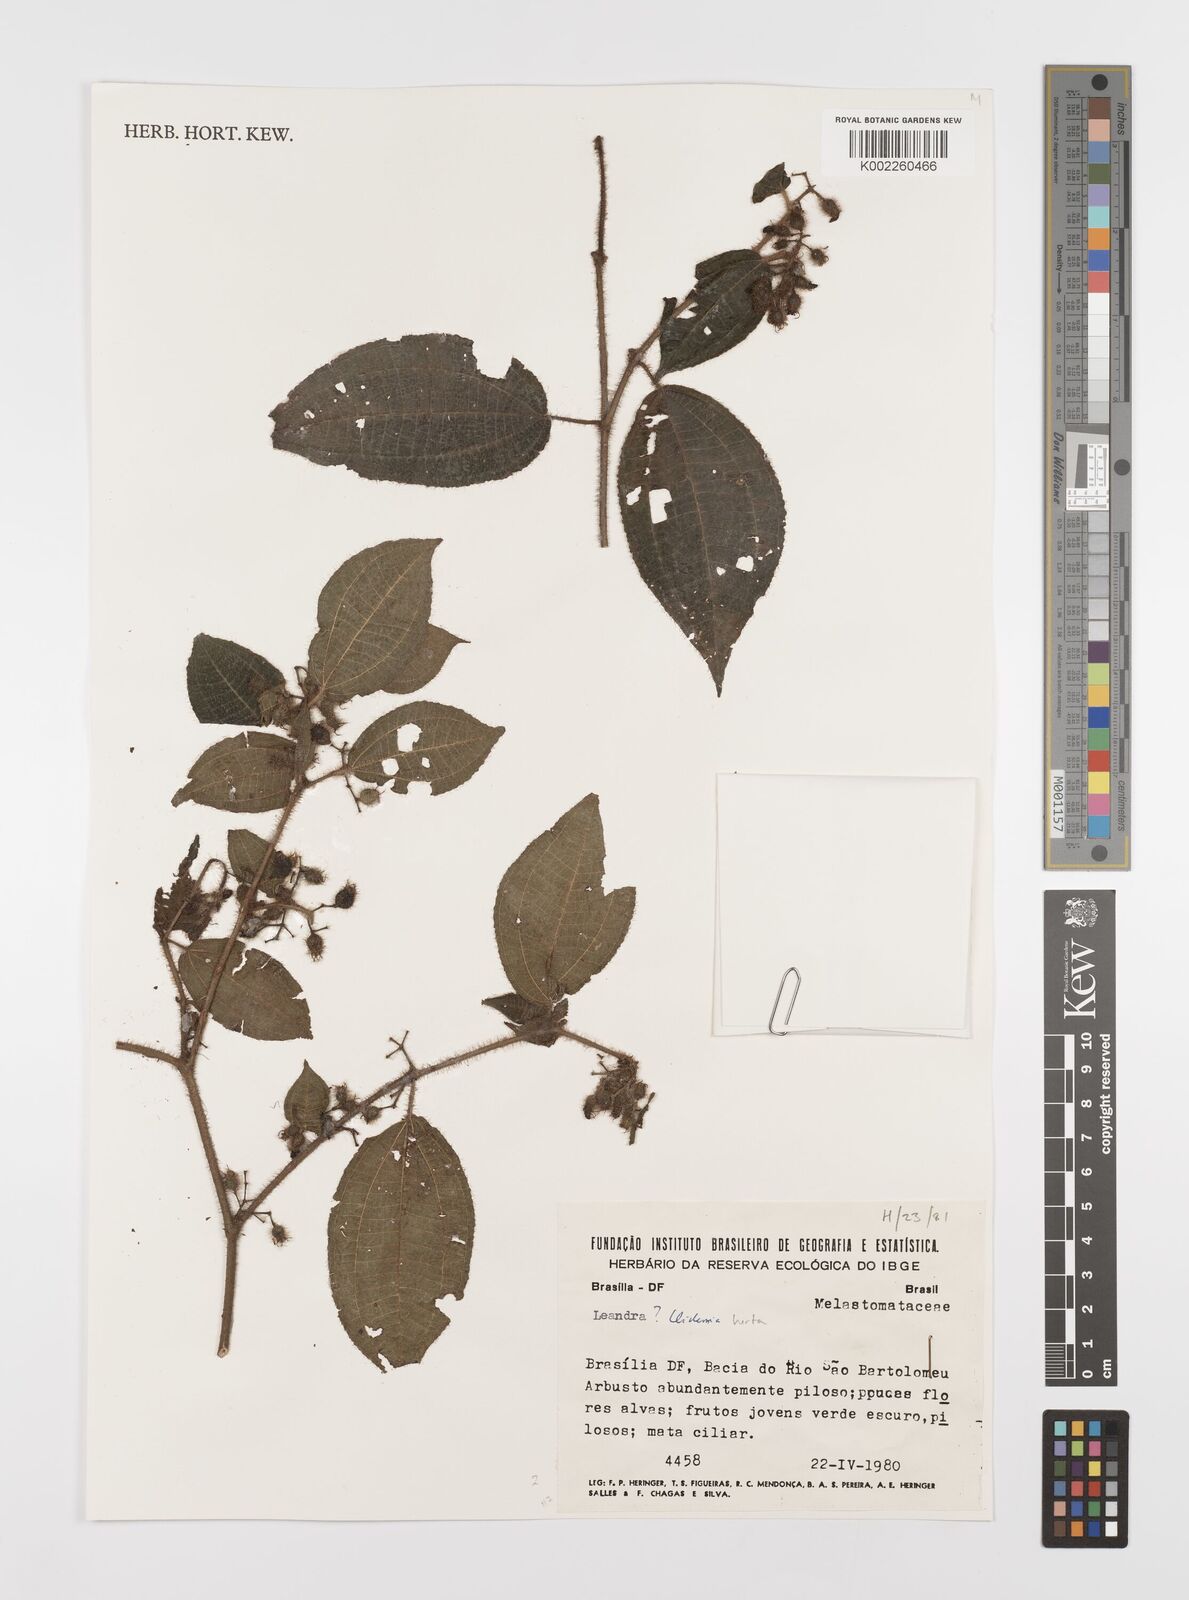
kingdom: Plantae
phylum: Tracheophyta
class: Magnoliopsida
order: Myrtales
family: Melastomataceae
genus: Miconia
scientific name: Miconia crenata
